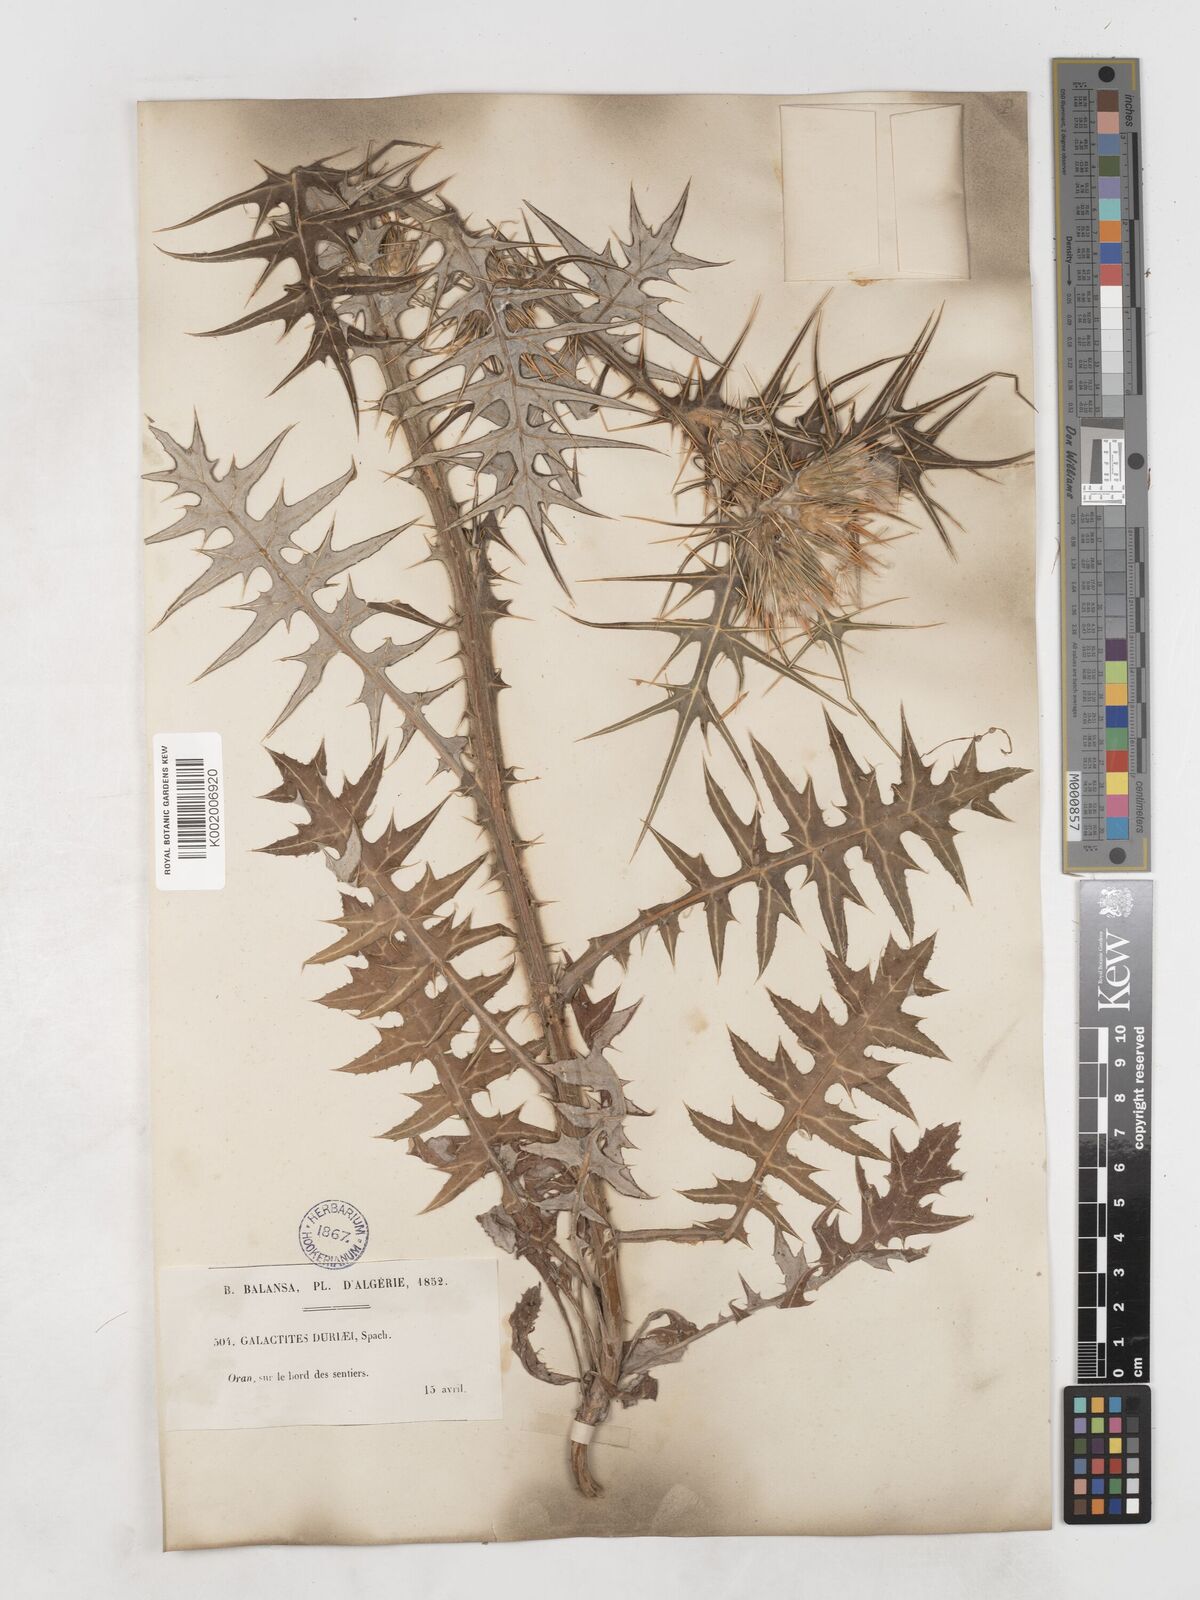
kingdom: Plantae
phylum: Tracheophyta
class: Magnoliopsida
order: Asterales
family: Asteraceae
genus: Galactites
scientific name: Galactites duriaei
